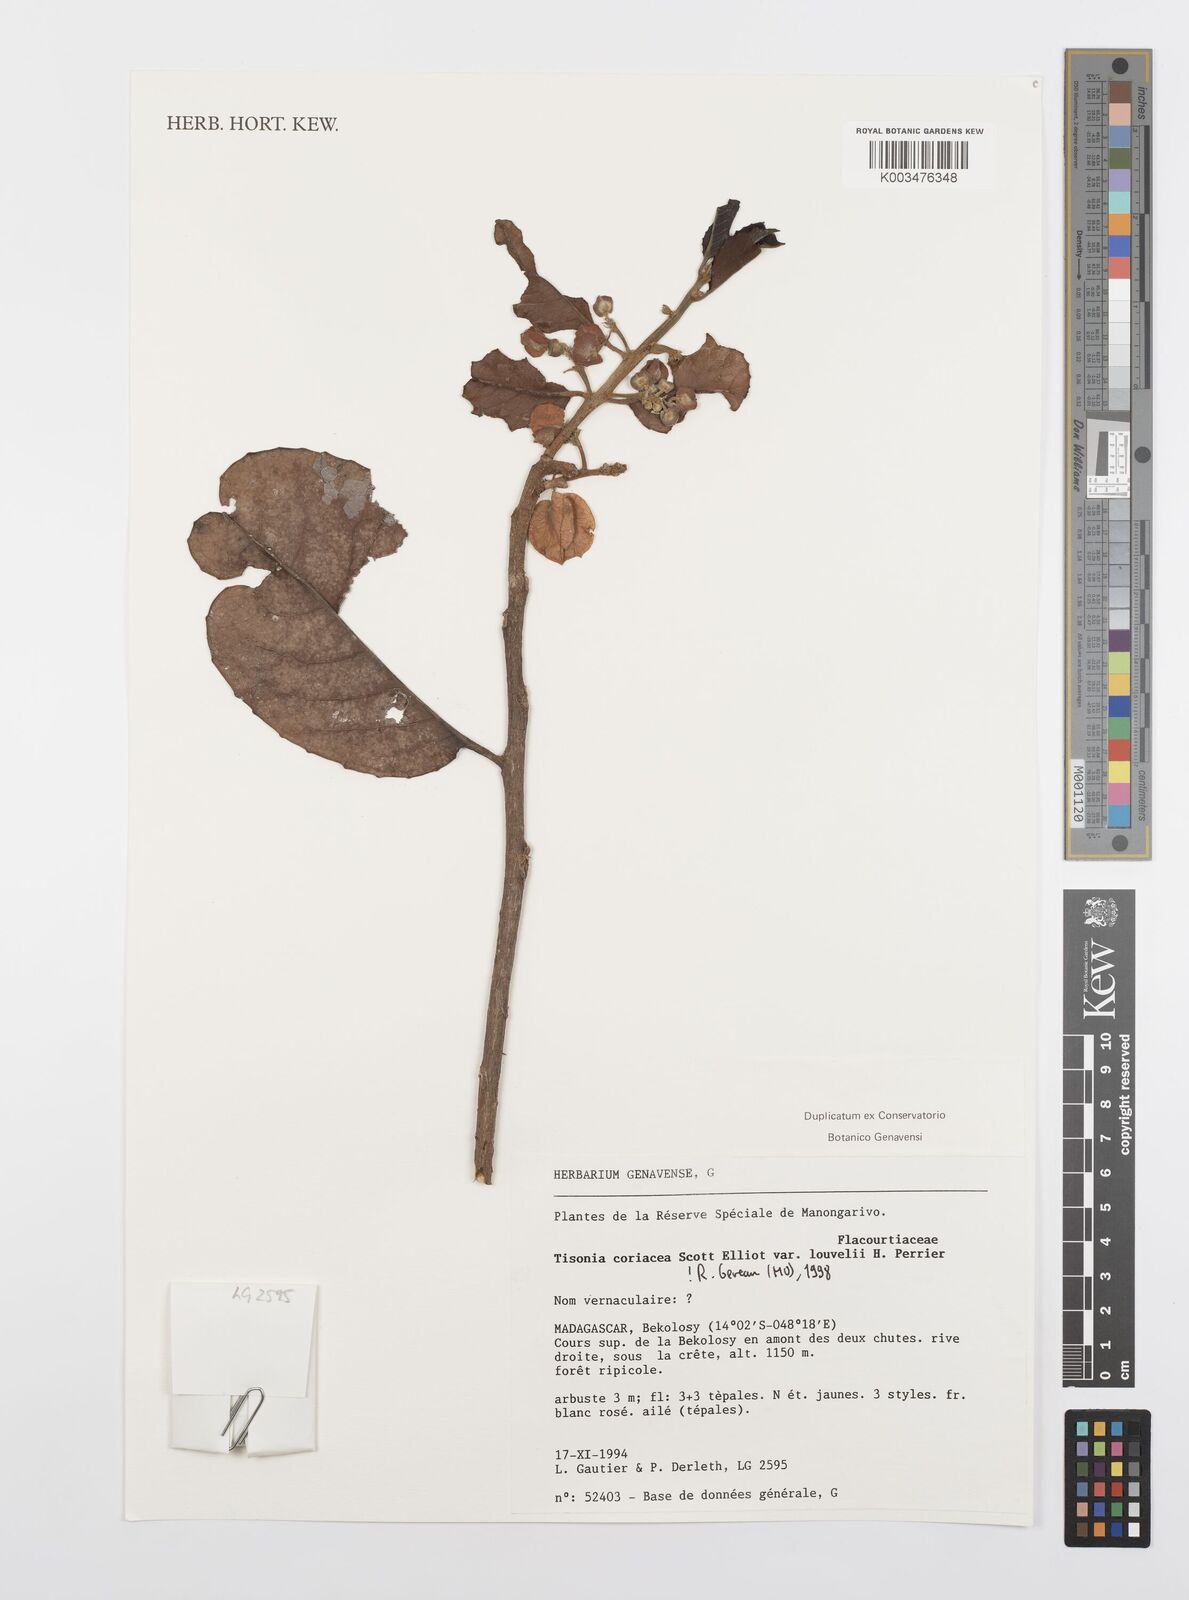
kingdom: Plantae
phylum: Tracheophyta
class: Magnoliopsida
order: Malpighiales
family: Salicaceae
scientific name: Salicaceae
